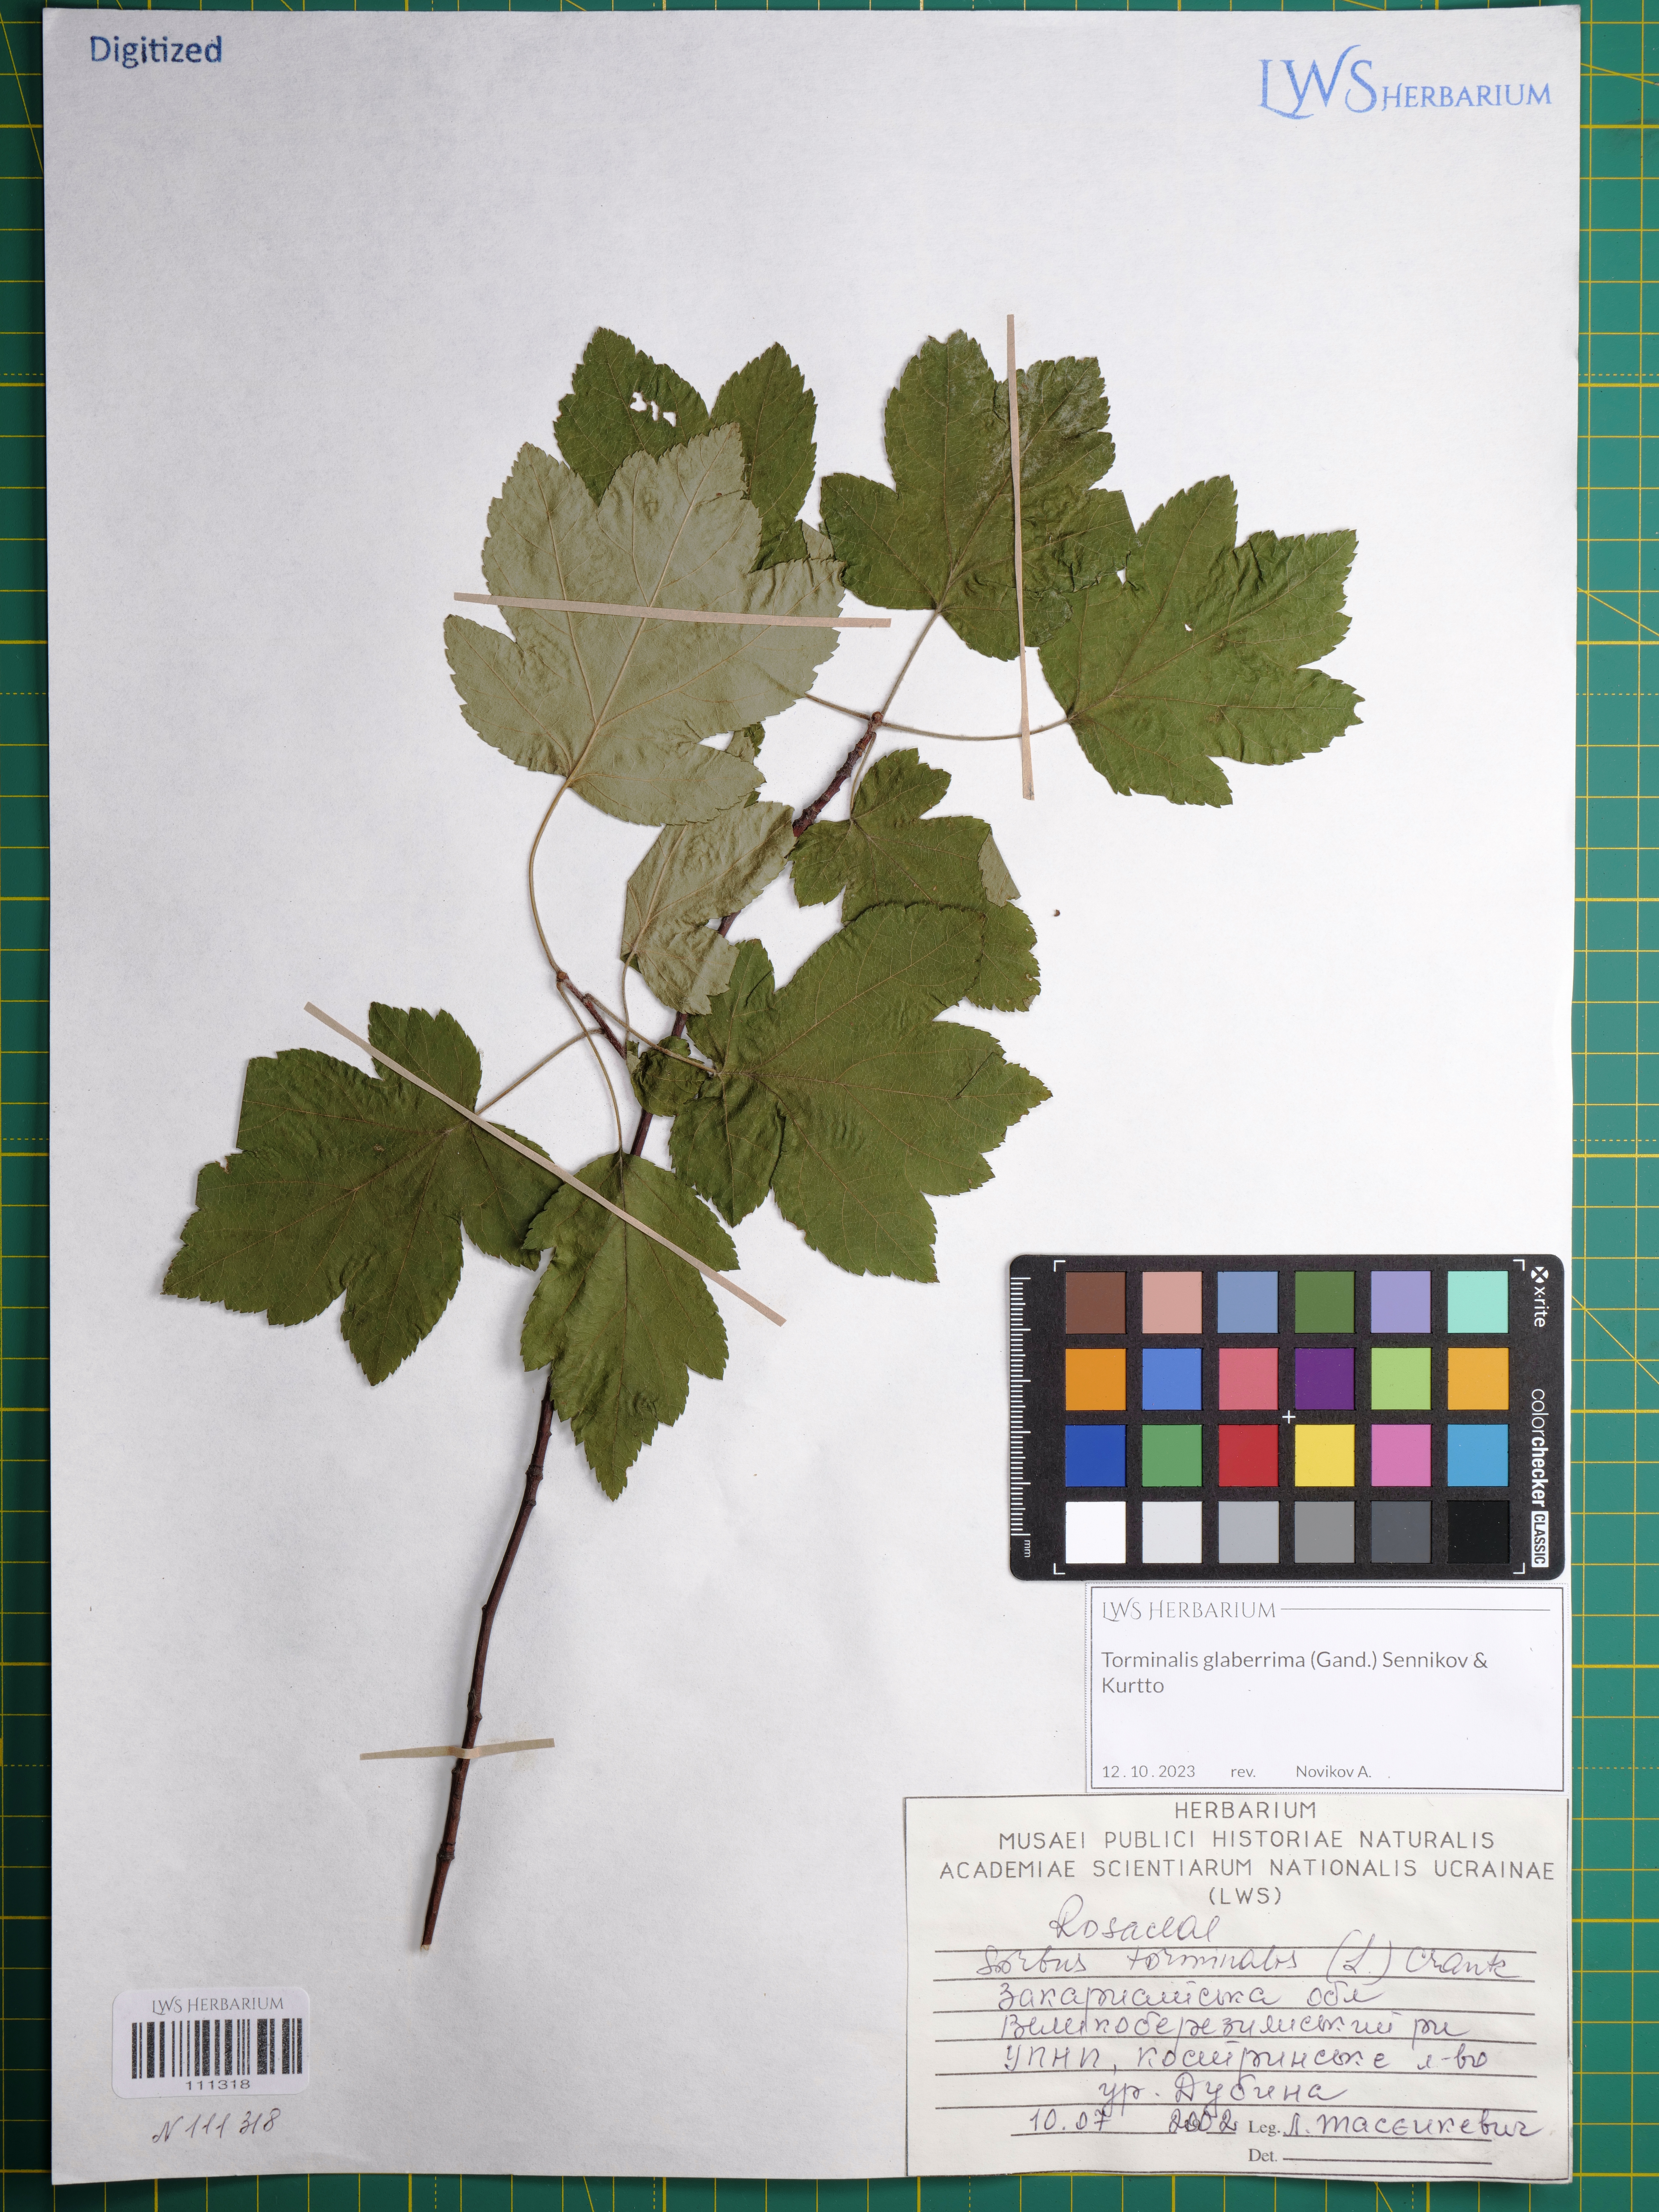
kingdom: Plantae
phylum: Tracheophyta
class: Magnoliopsida
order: Rosales
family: Rosaceae
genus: Torminalis
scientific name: Torminalis glaberrima
